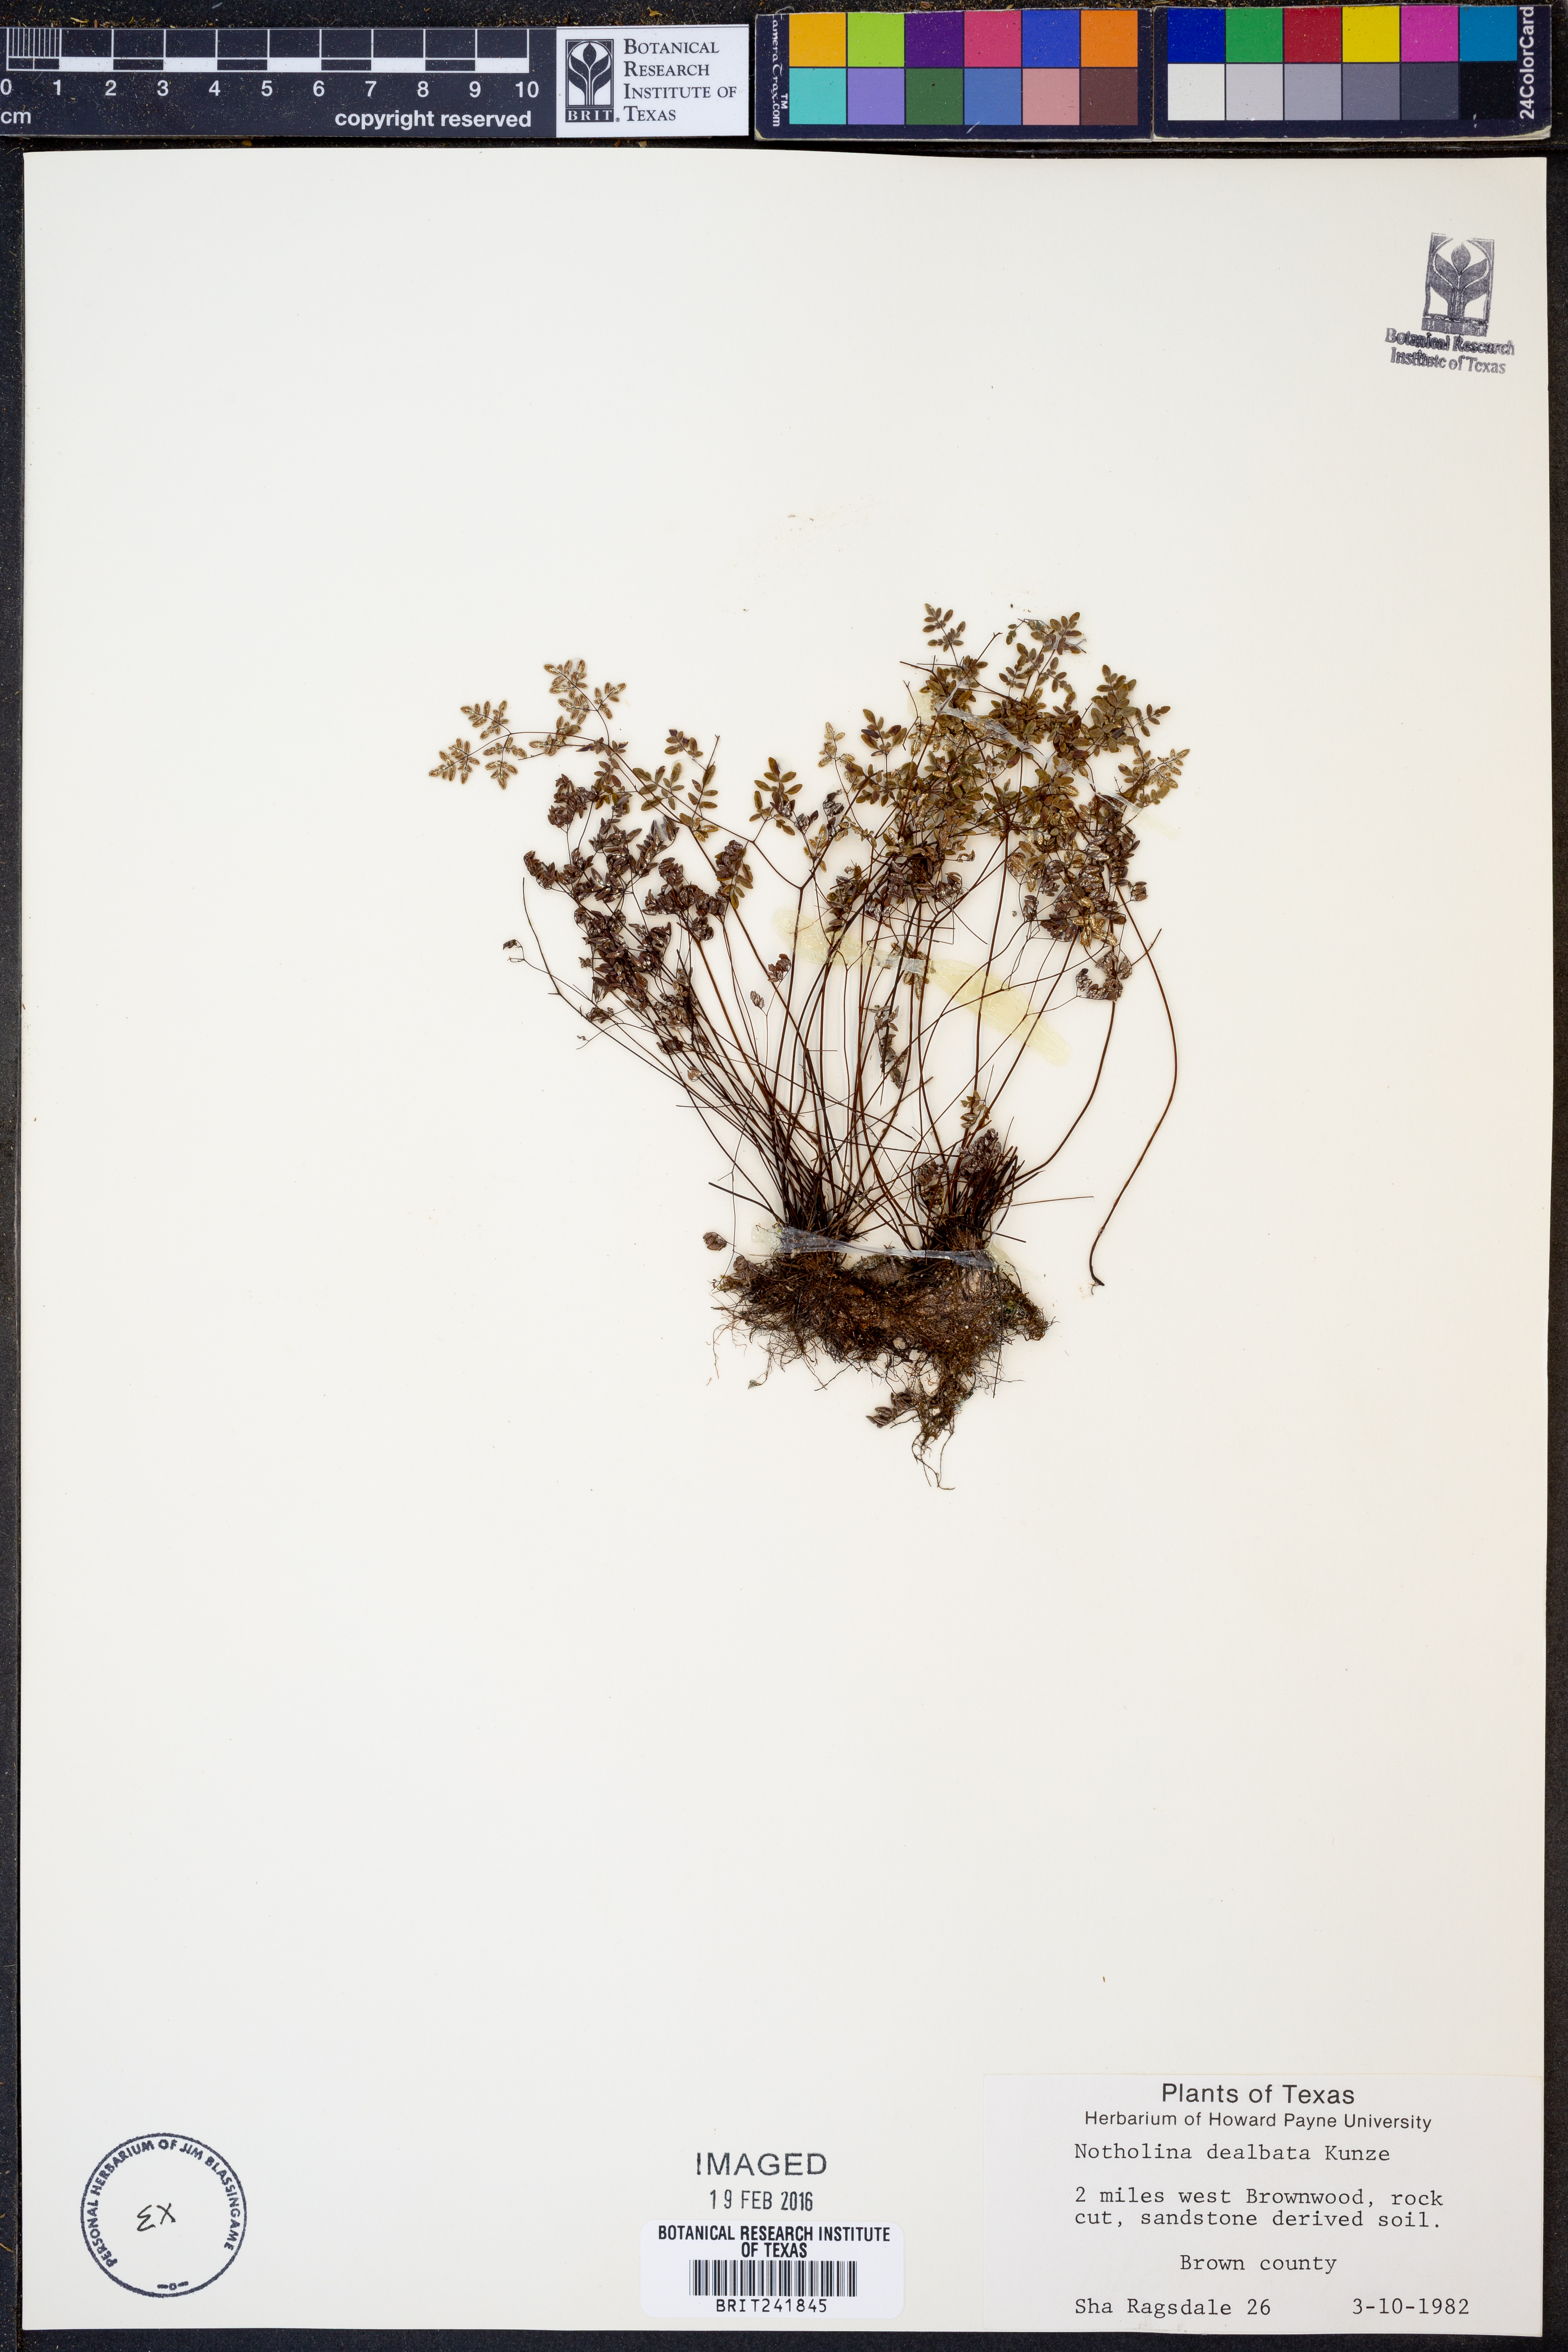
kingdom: Plantae
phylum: Tracheophyta
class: Polypodiopsida
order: Polypodiales
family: Pteridaceae
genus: Argyrochosma
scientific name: Argyrochosma dealbata
